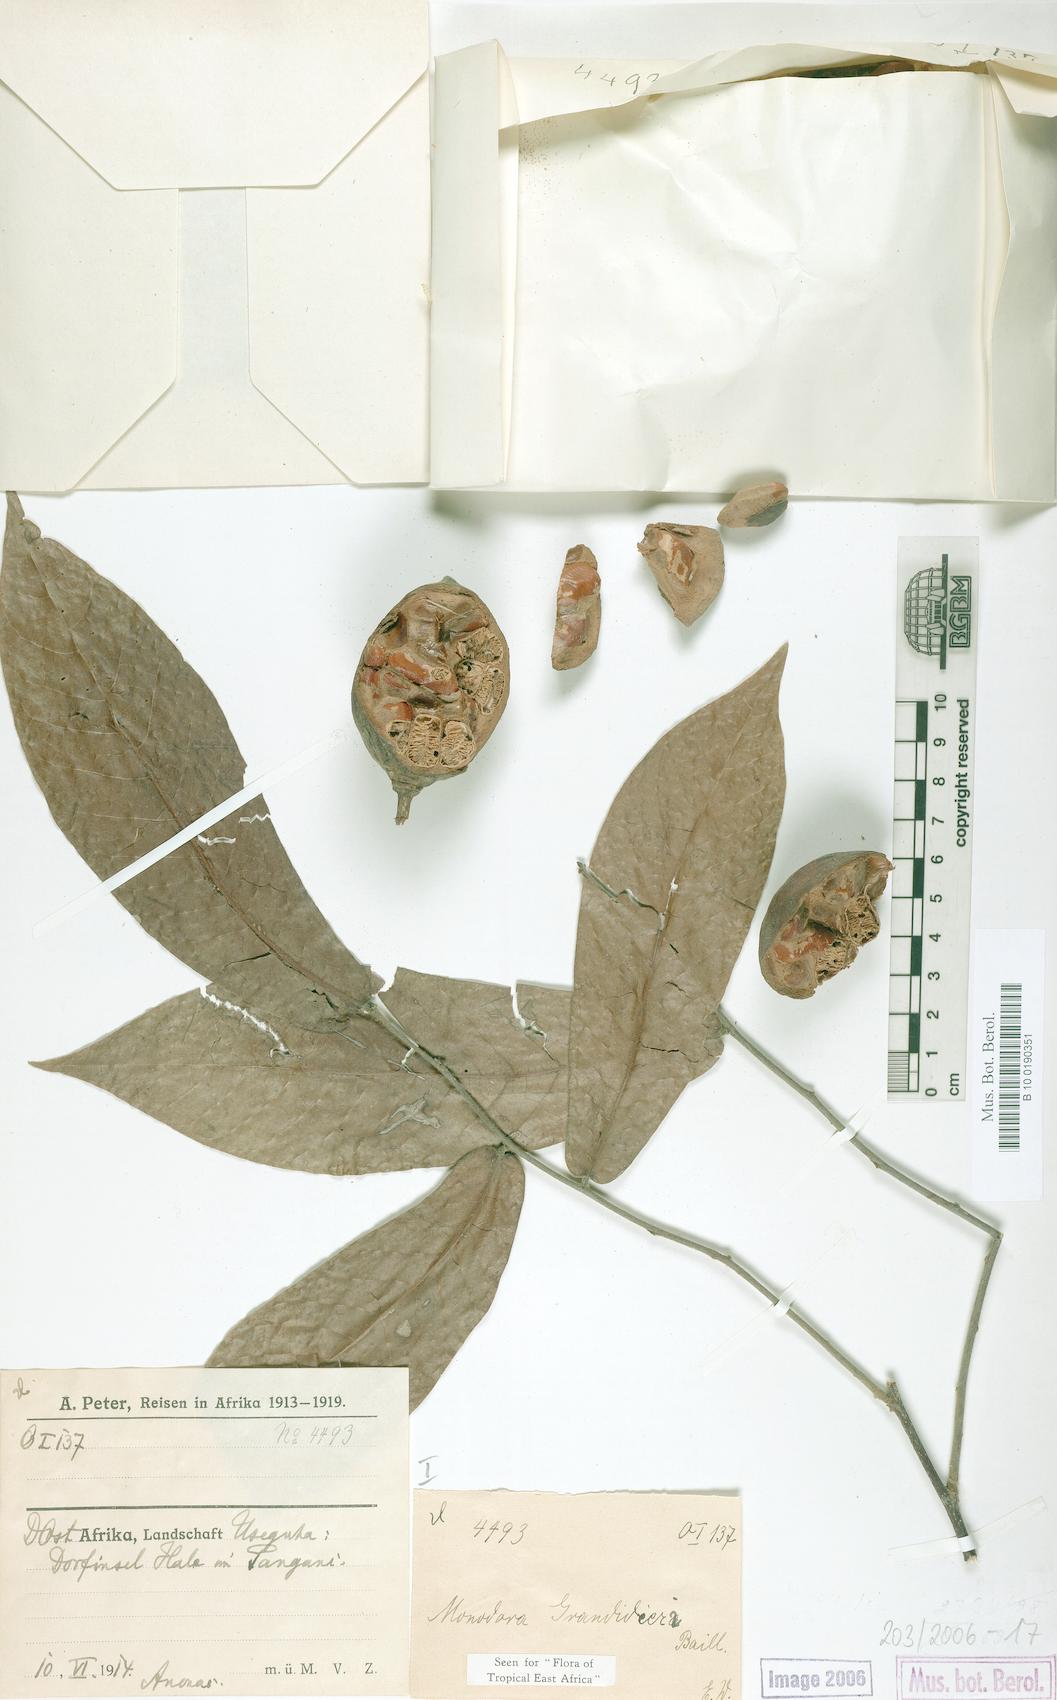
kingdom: Plantae
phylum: Tracheophyta
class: Magnoliopsida
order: Magnoliales
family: Annonaceae
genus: Monodora
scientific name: Monodora grandidieri
